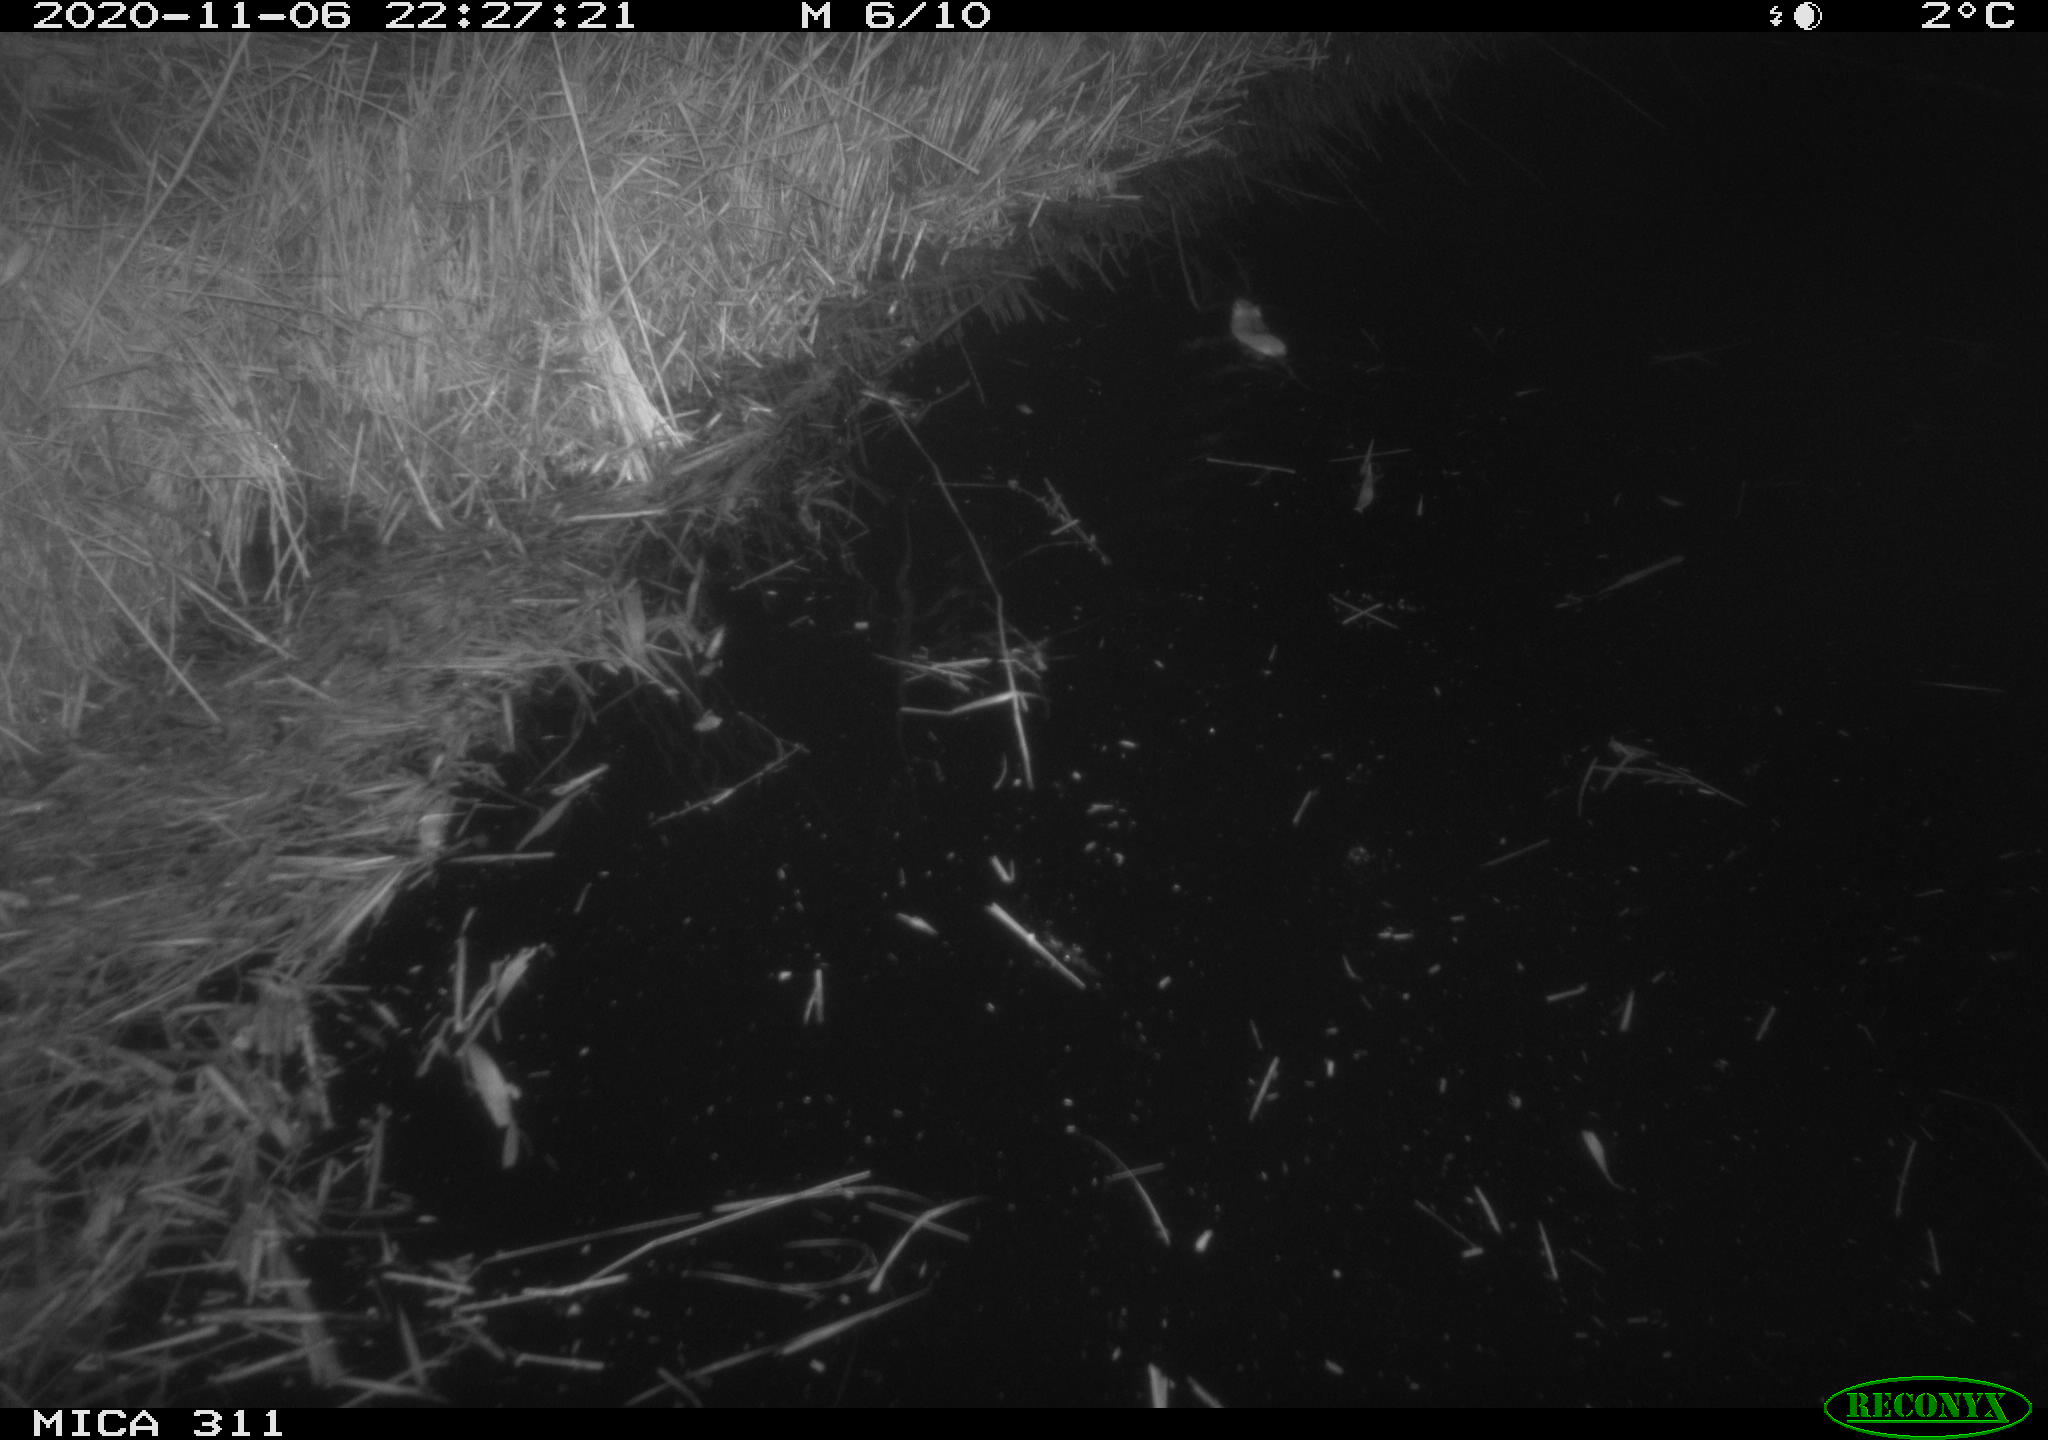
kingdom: Animalia
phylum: Chordata
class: Mammalia
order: Rodentia
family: Cricetidae
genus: Ondatra
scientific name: Ondatra zibethicus
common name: Muskrat
